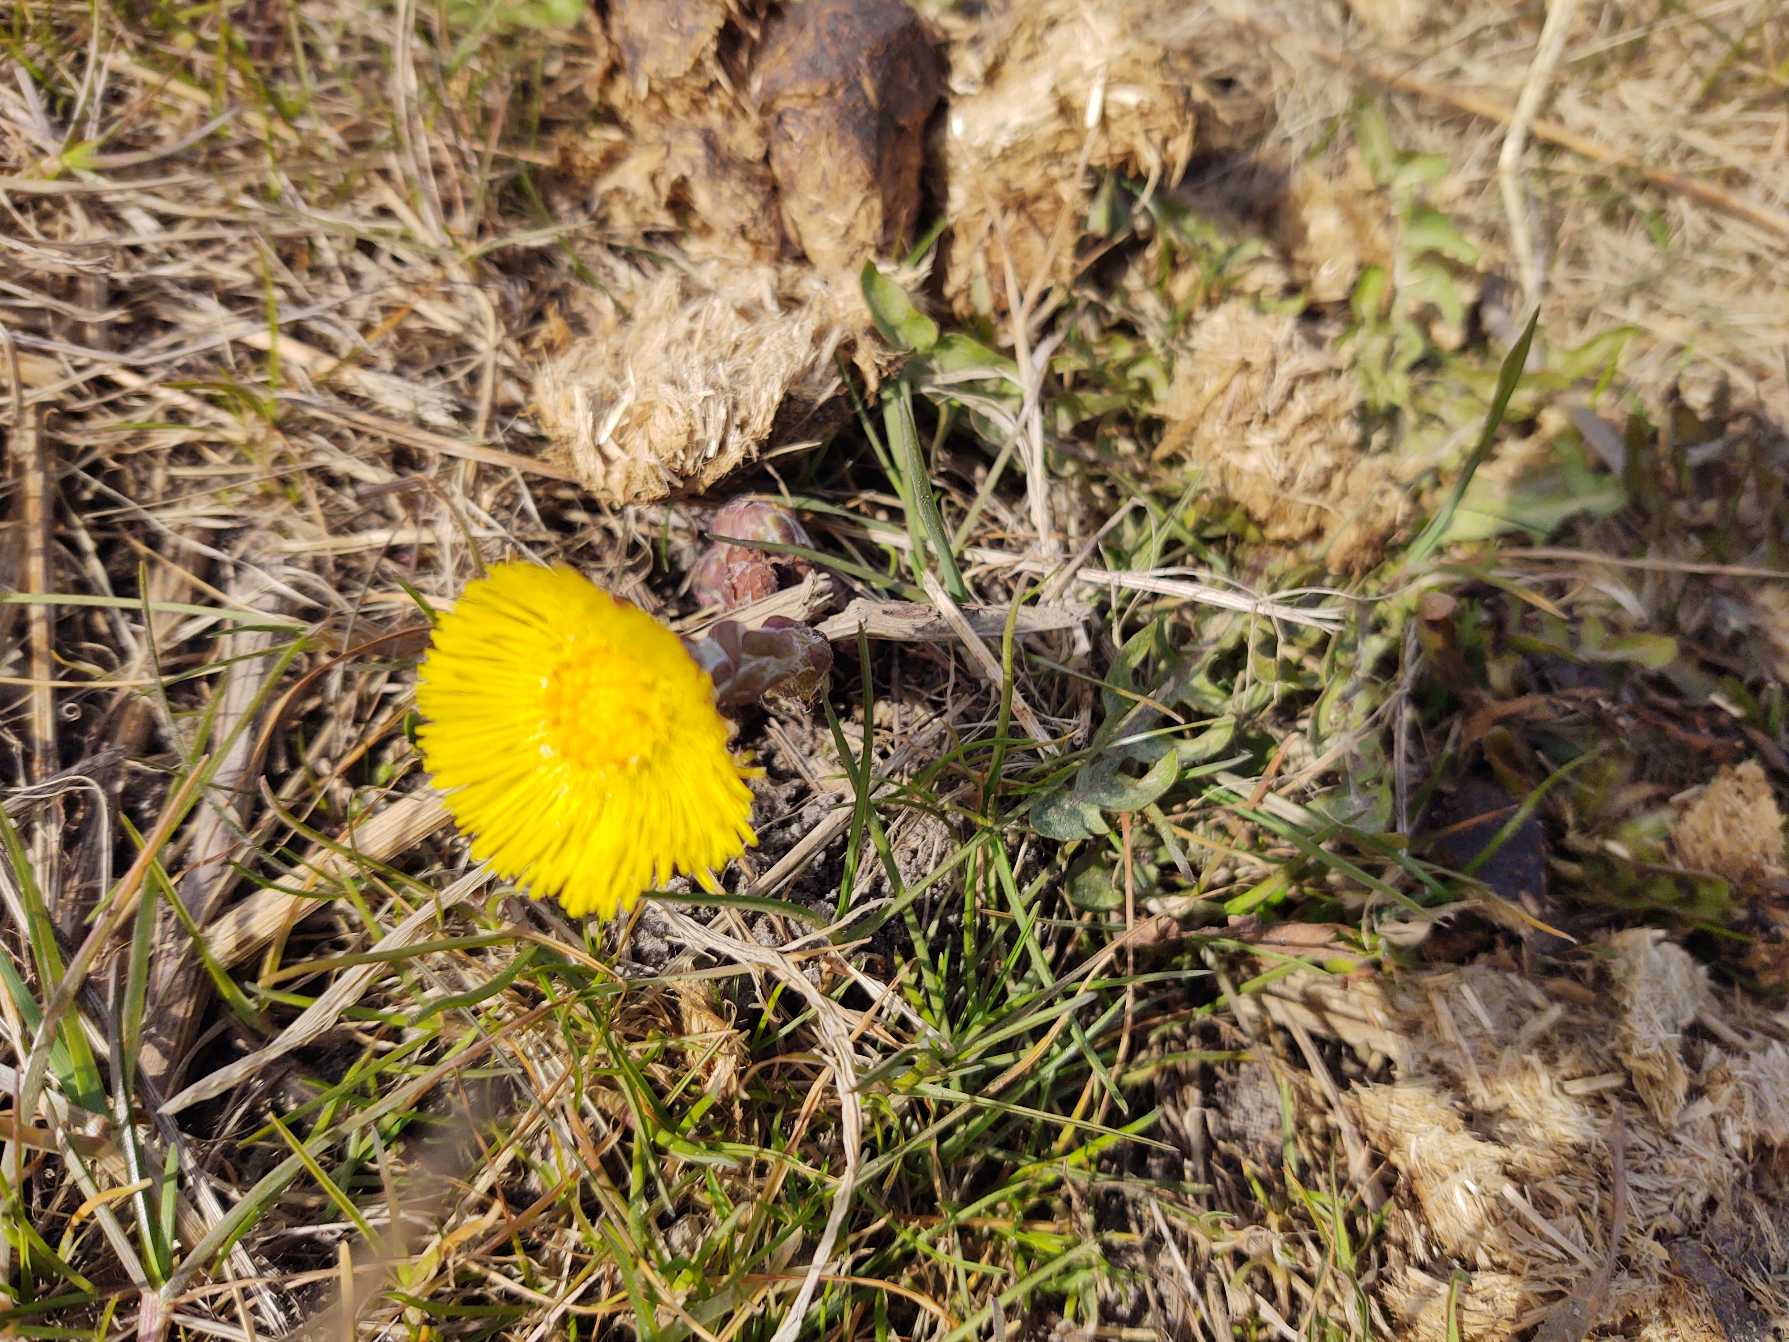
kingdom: Plantae
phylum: Tracheophyta
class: Magnoliopsida
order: Asterales
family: Asteraceae
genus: Tussilago
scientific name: Tussilago farfara
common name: Følfod
